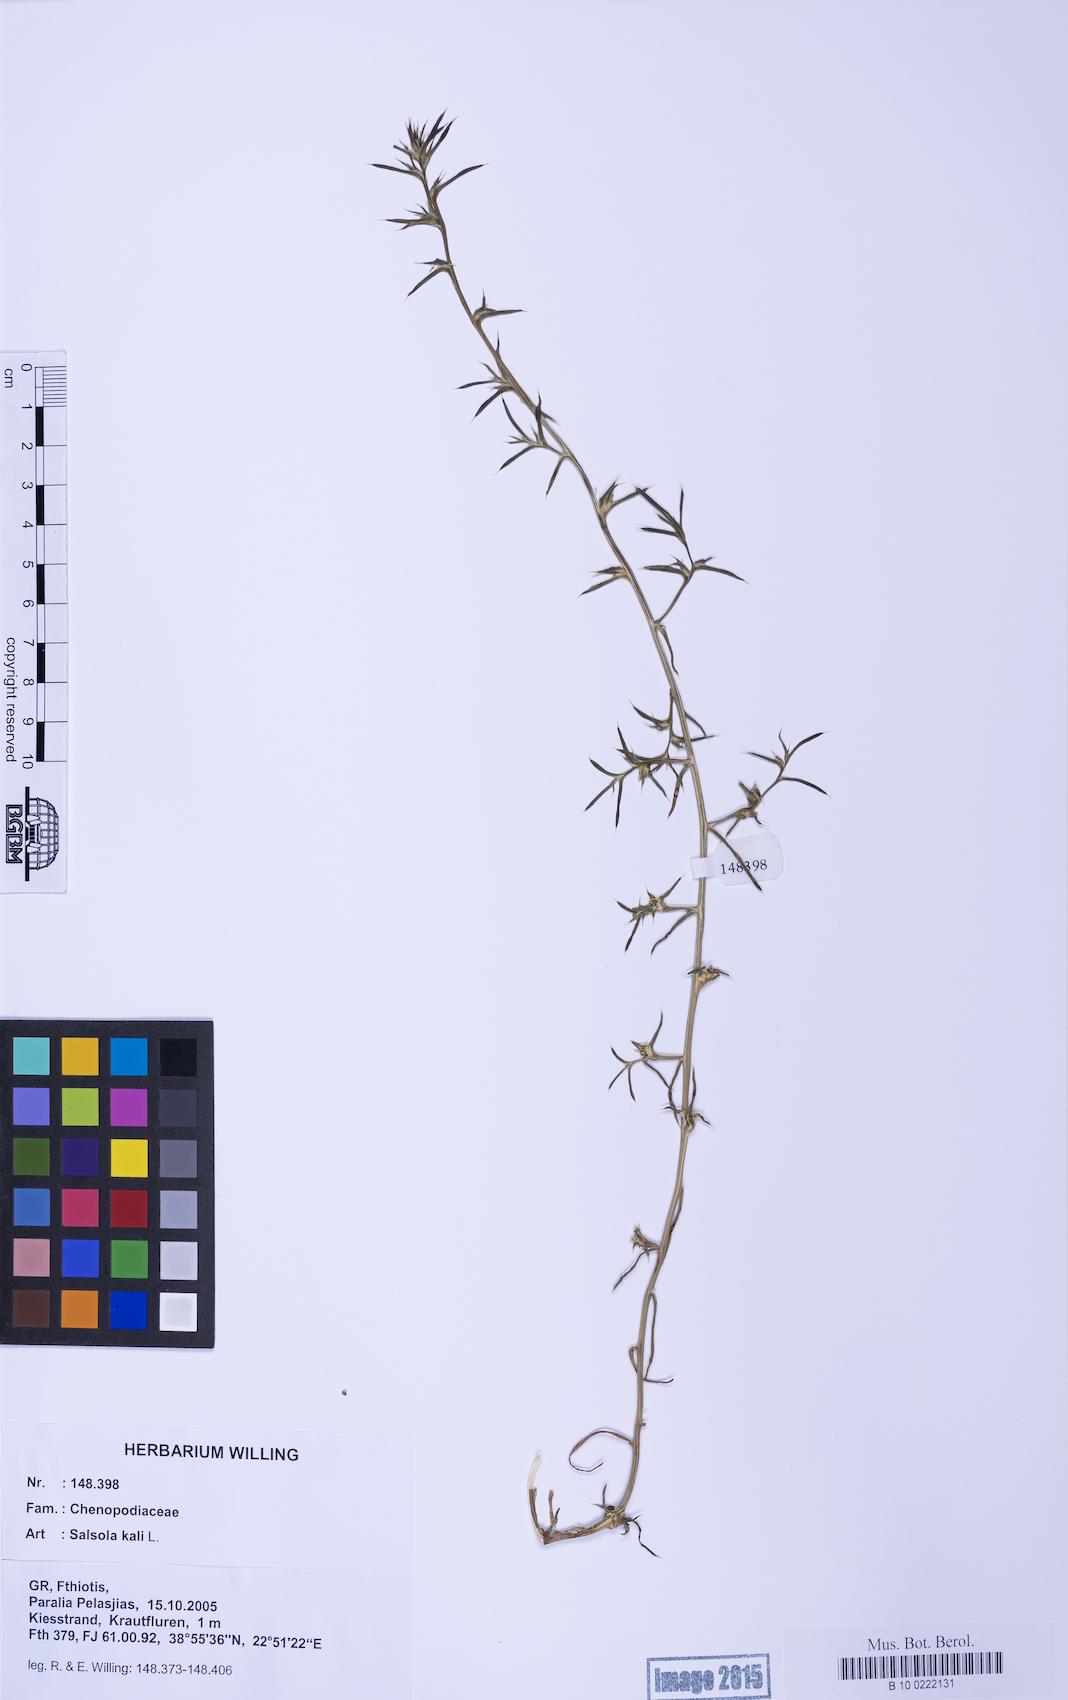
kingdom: Plantae
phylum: Tracheophyta
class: Magnoliopsida
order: Caryophyllales
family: Amaranthaceae
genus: Salsola
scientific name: Salsola kali
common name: Saltwort
